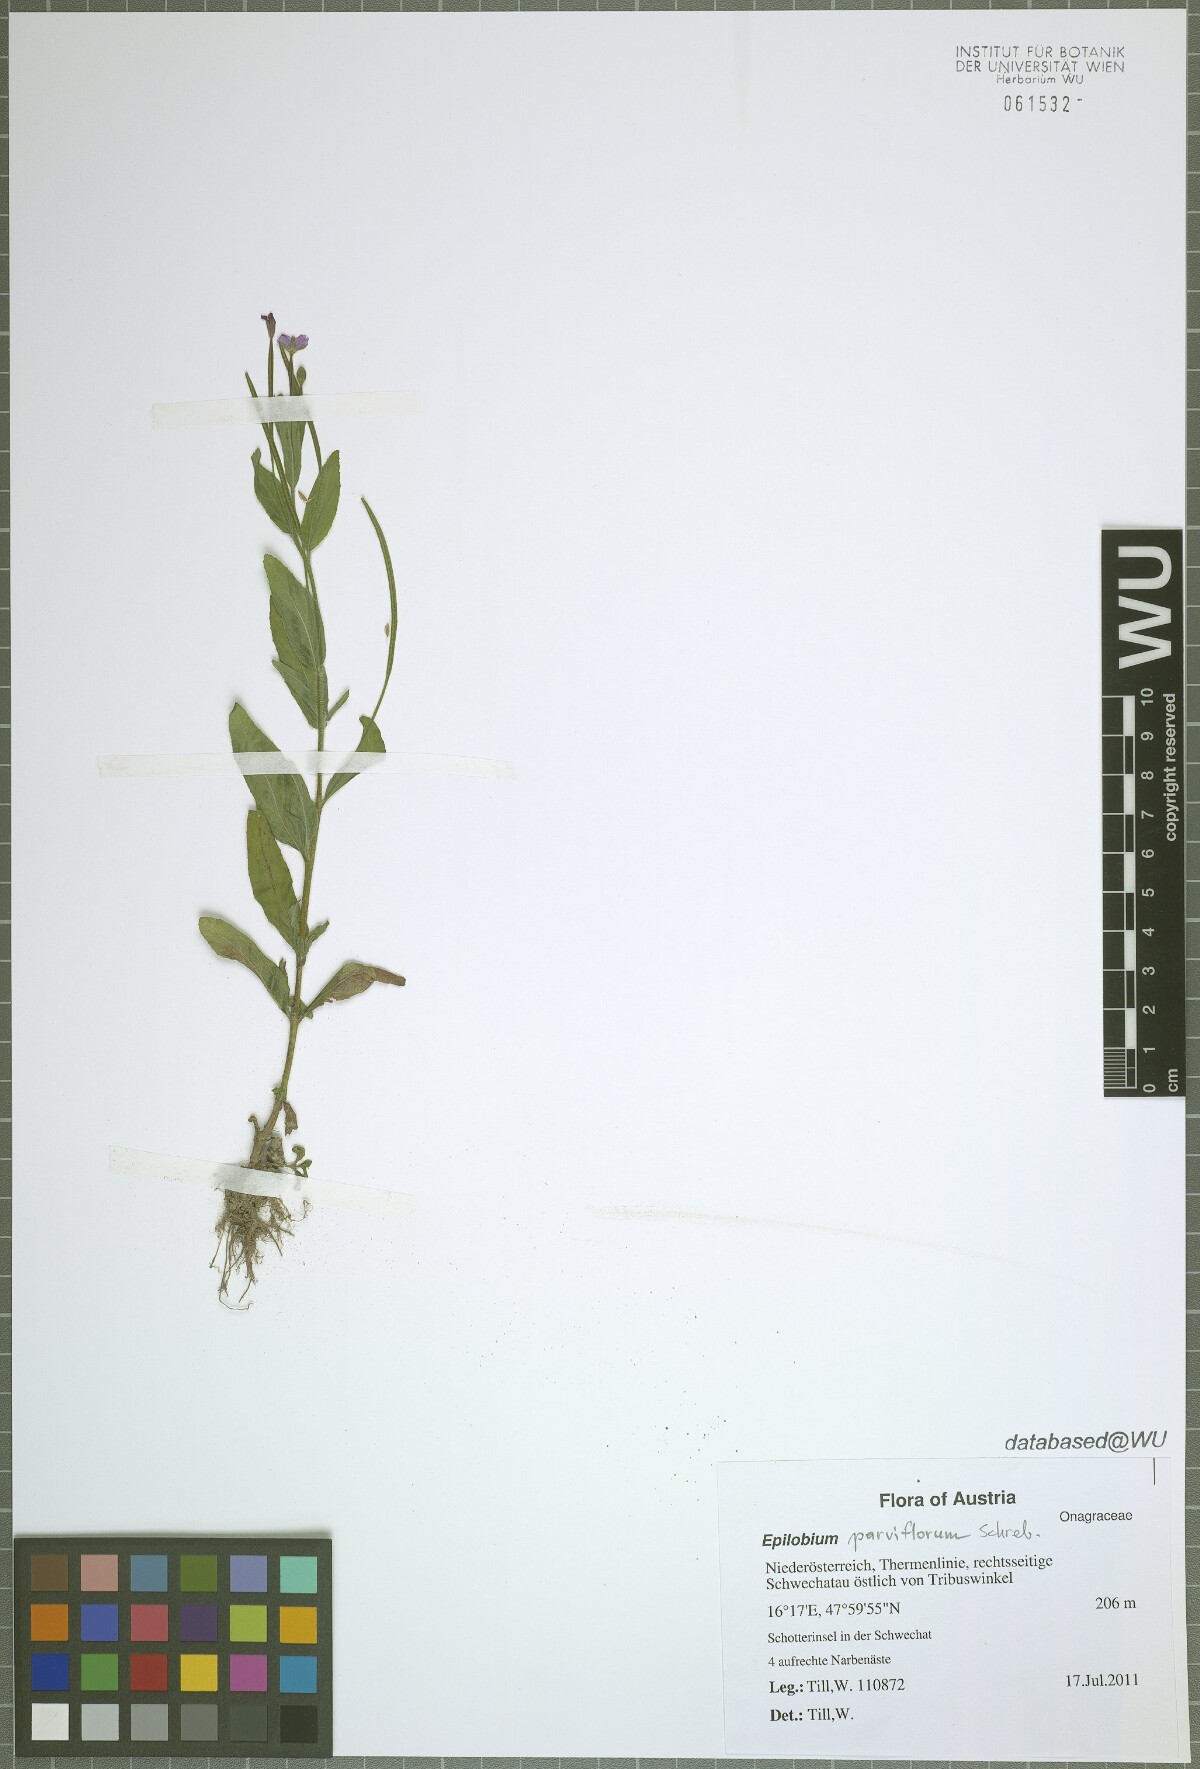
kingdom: Plantae
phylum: Tracheophyta
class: Magnoliopsida
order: Myrtales
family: Onagraceae
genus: Epilobium
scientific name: Epilobium parviflorum
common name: Hoary willowherb
